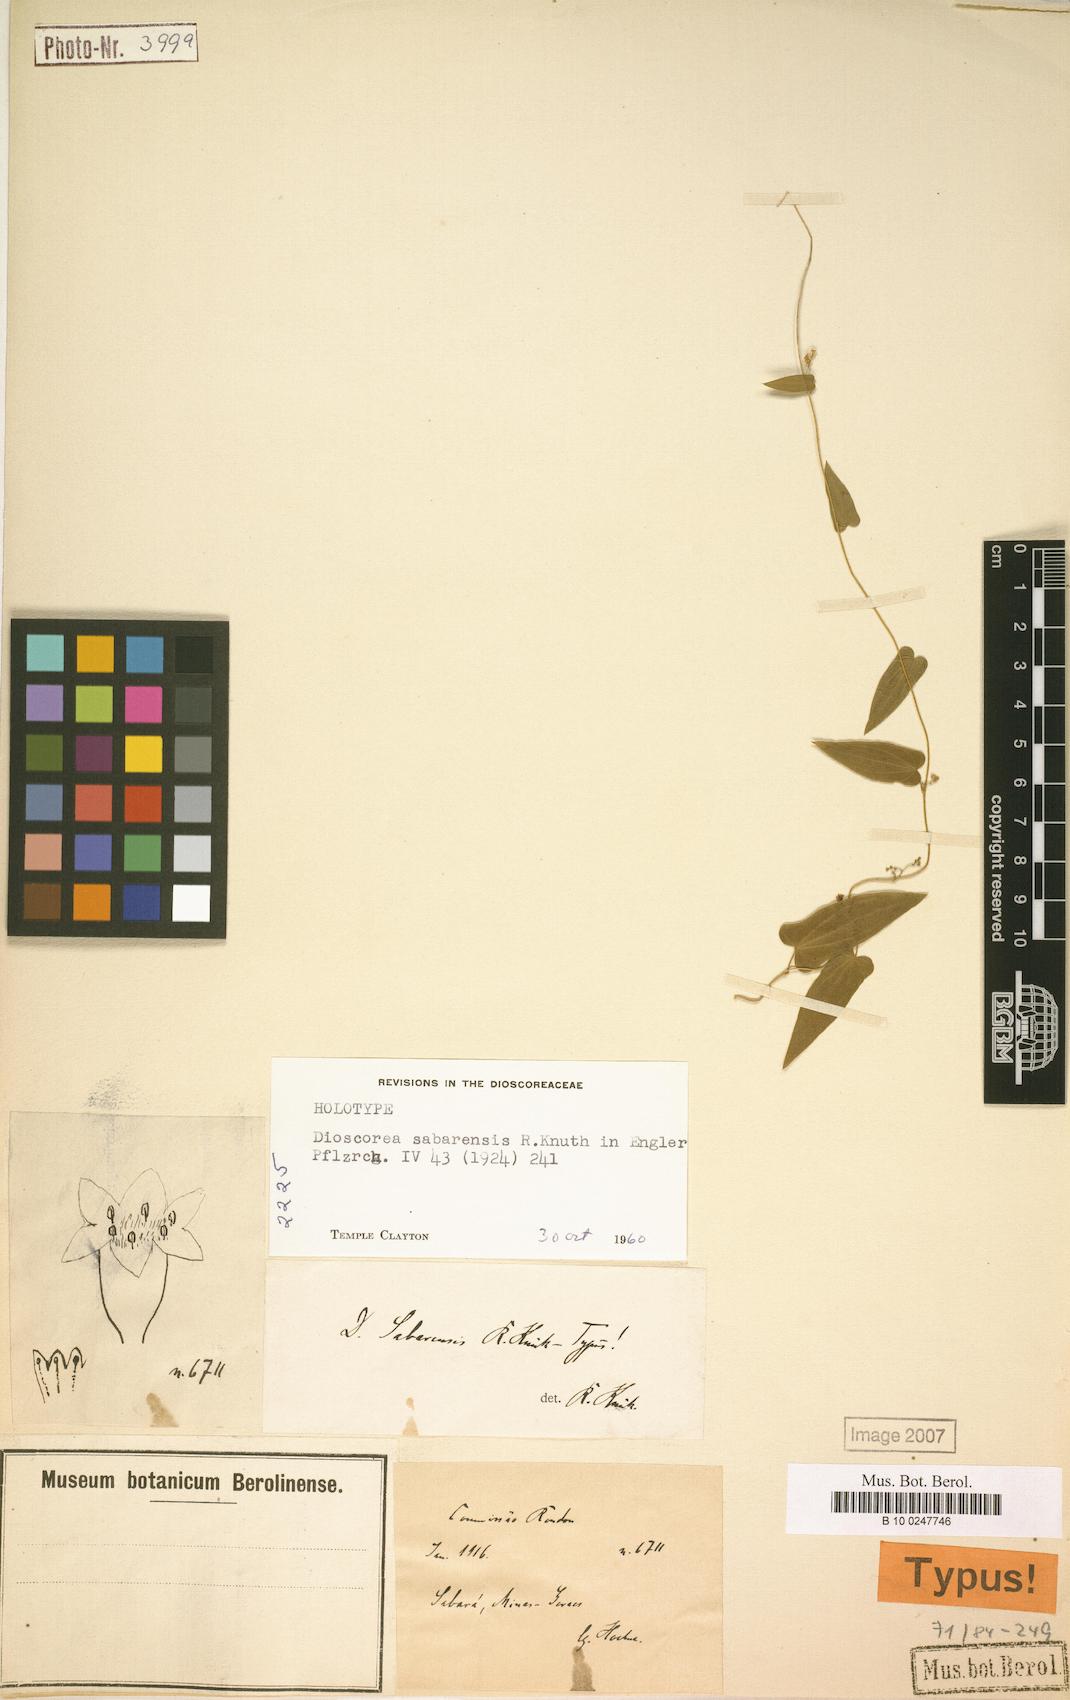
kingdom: Plantae
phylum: Tracheophyta
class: Liliopsida
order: Dioscoreales
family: Dioscoreaceae
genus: Dioscorea
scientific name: Dioscorea sabarensis
